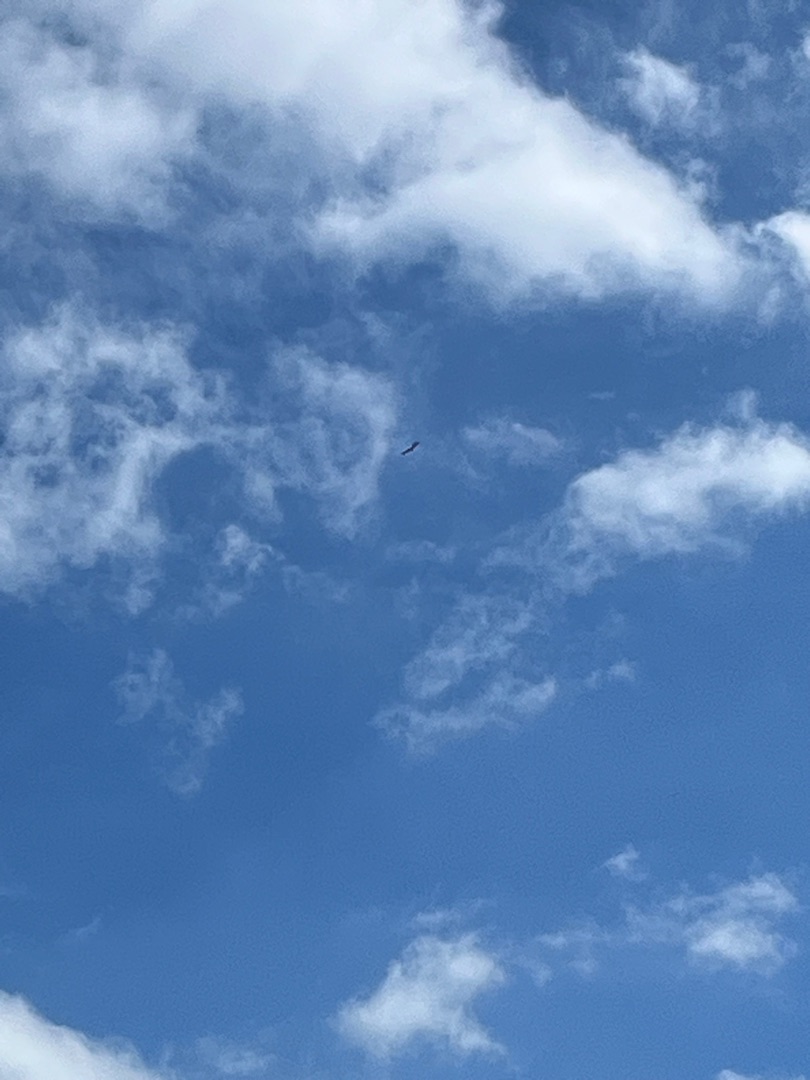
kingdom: Animalia
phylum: Chordata
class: Aves
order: Accipitriformes
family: Accipitridae
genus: Haliaeetus
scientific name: Haliaeetus albicilla
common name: Havørn
